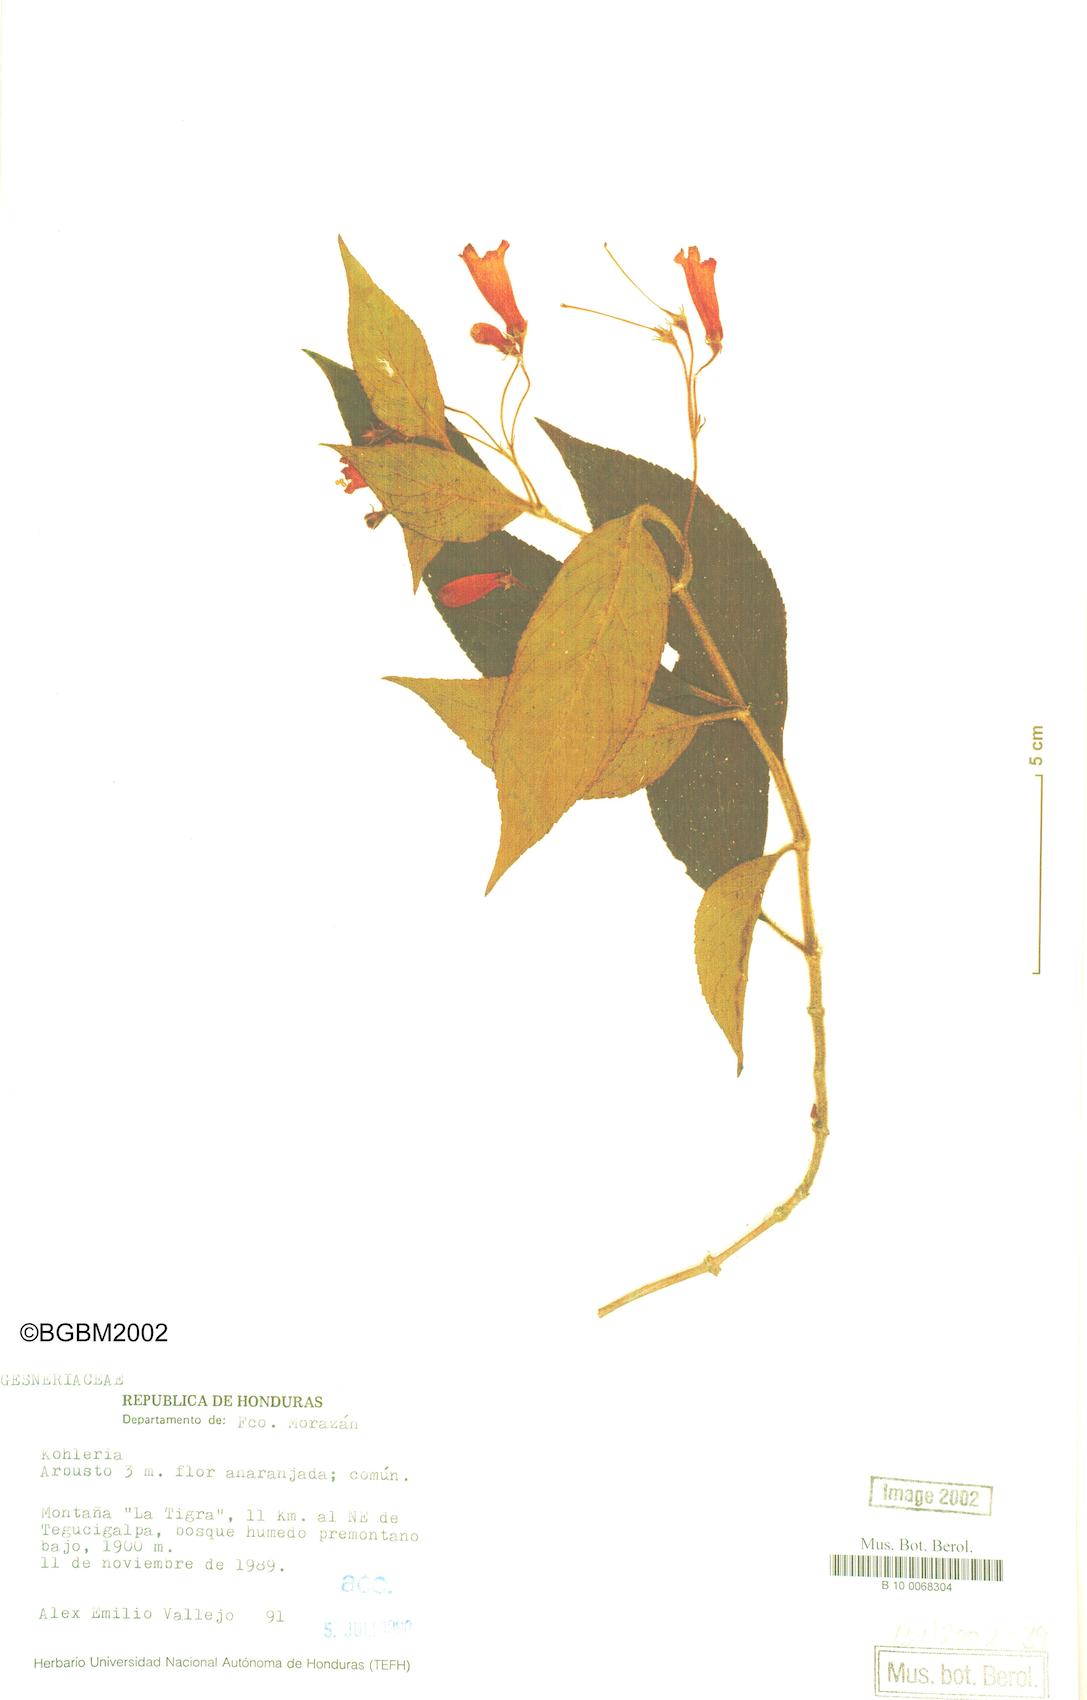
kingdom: Plantae
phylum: Tracheophyta
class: Magnoliopsida
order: Lamiales
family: Gesneriaceae
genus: Kohleria
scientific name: Kohleria
